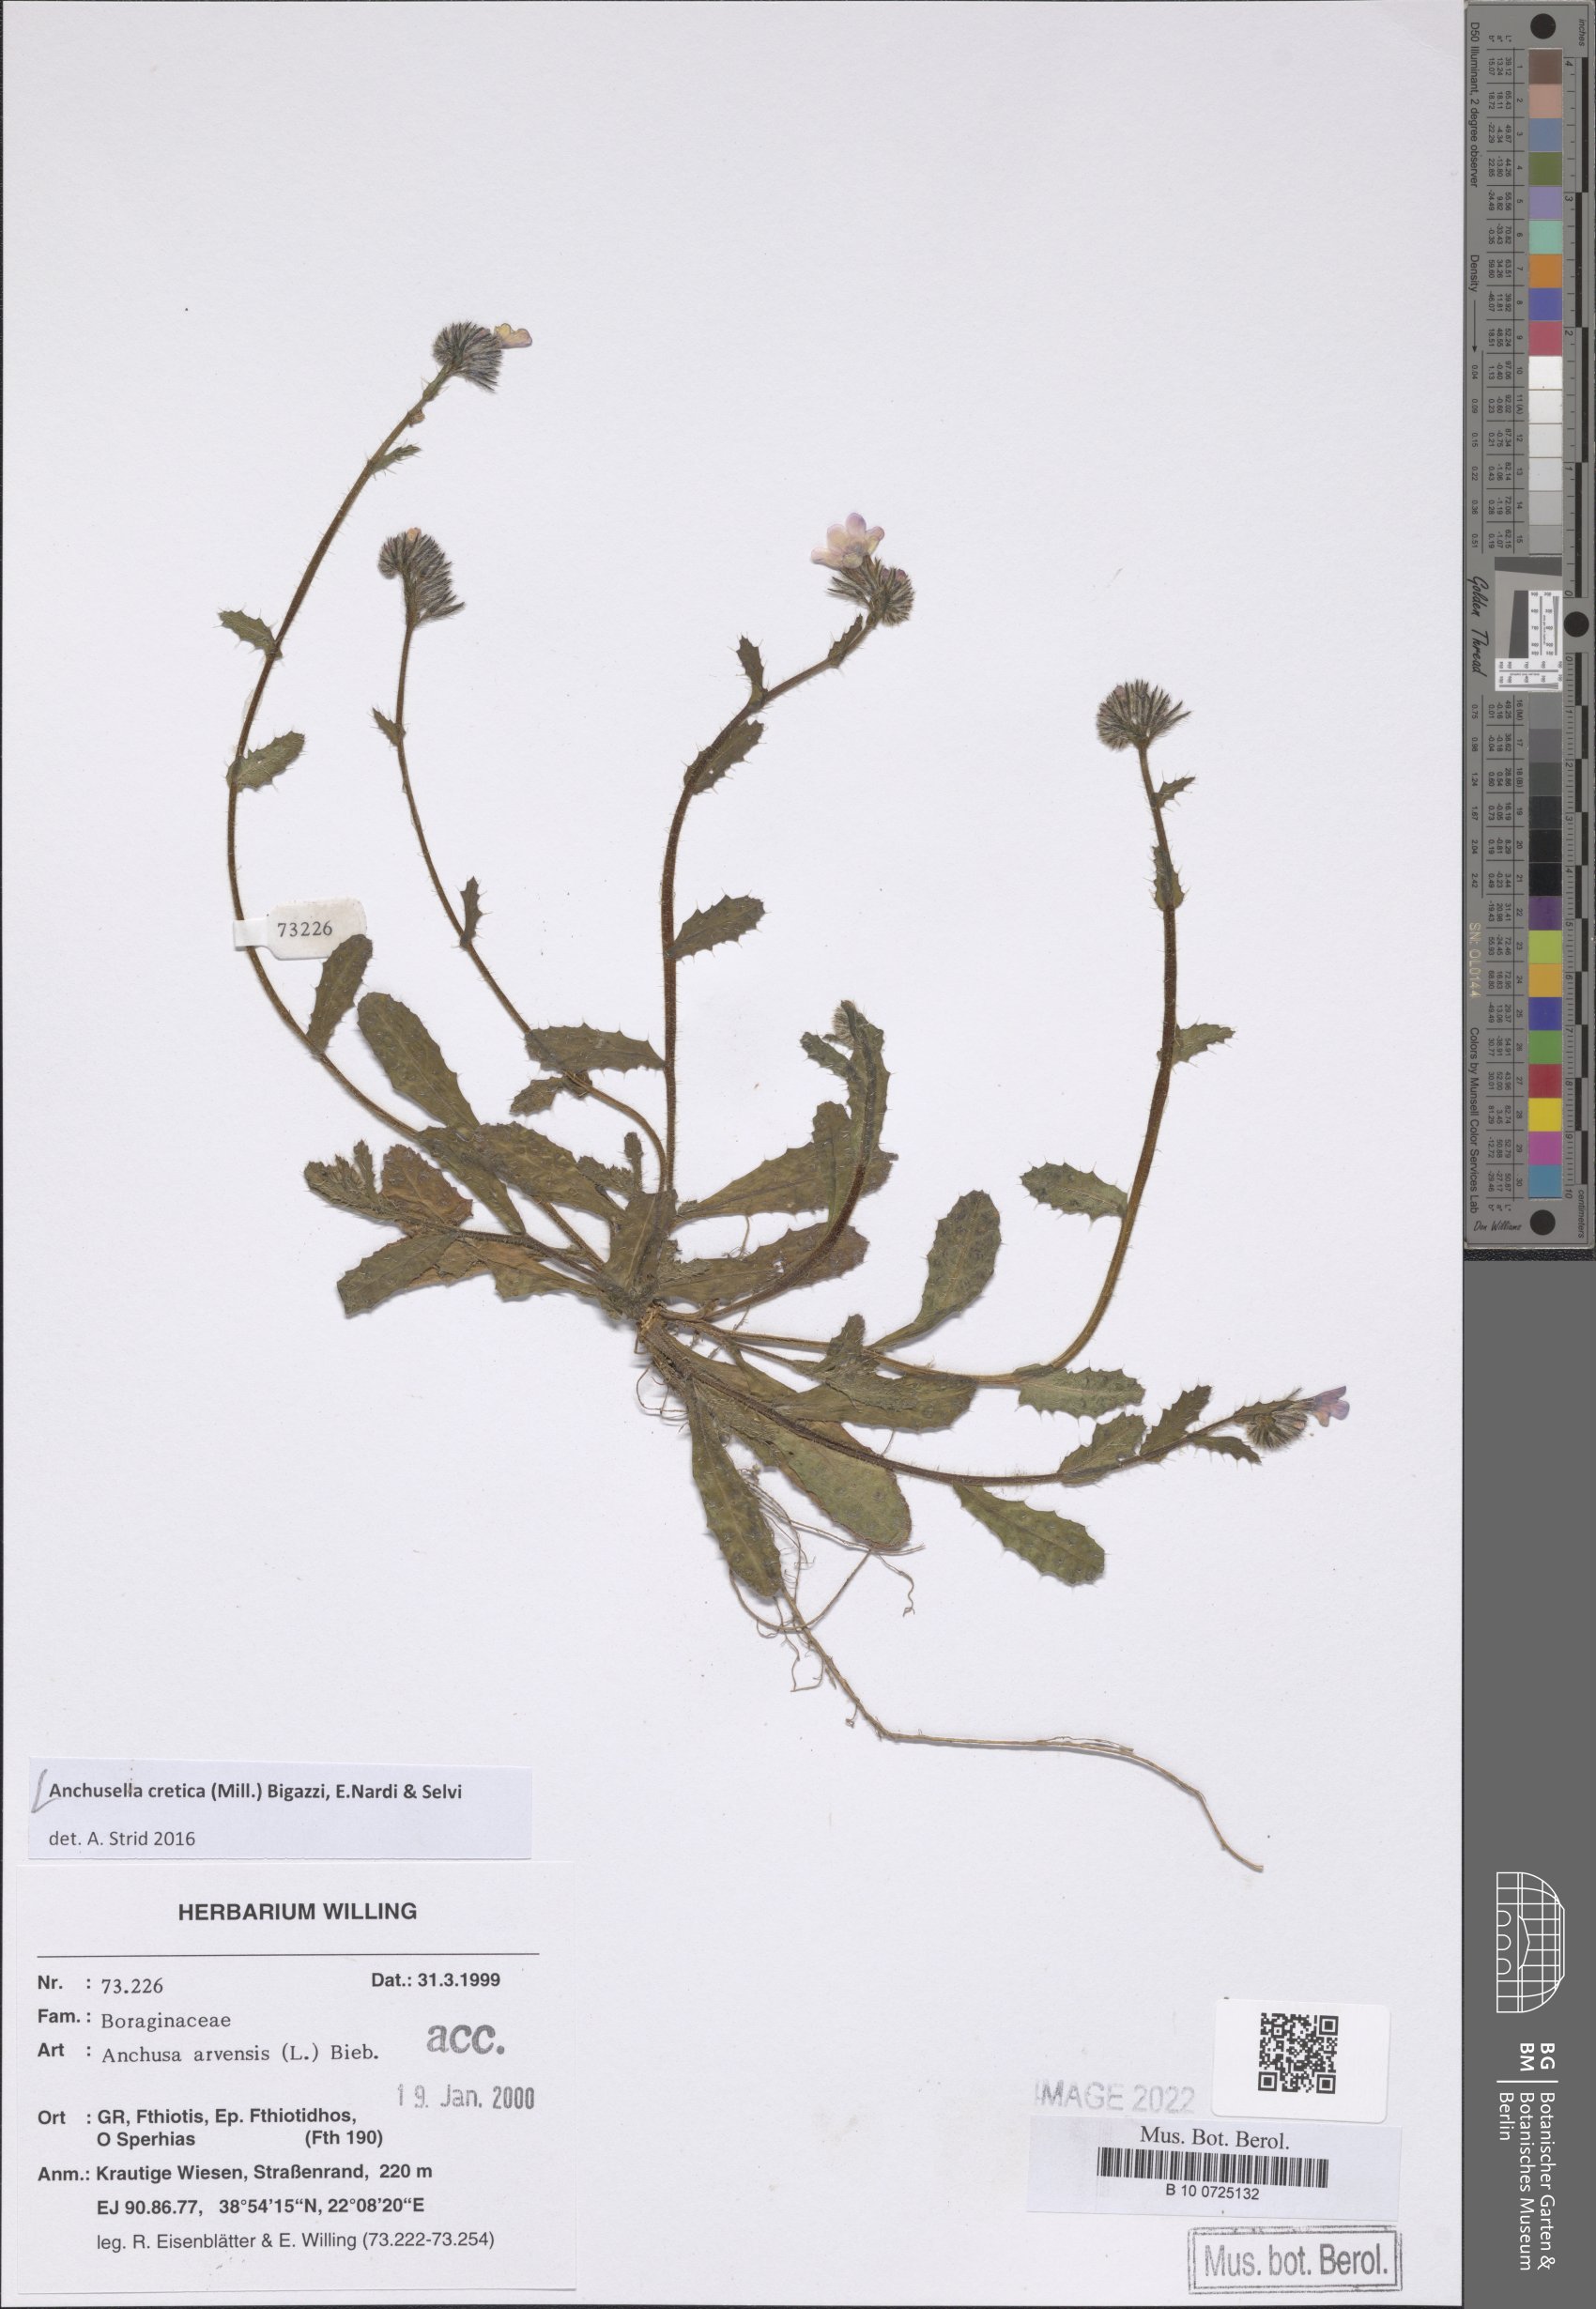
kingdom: Plantae
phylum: Tracheophyta
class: Magnoliopsida
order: Boraginales
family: Boraginaceae
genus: Anchusella
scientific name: Anchusella cretica
